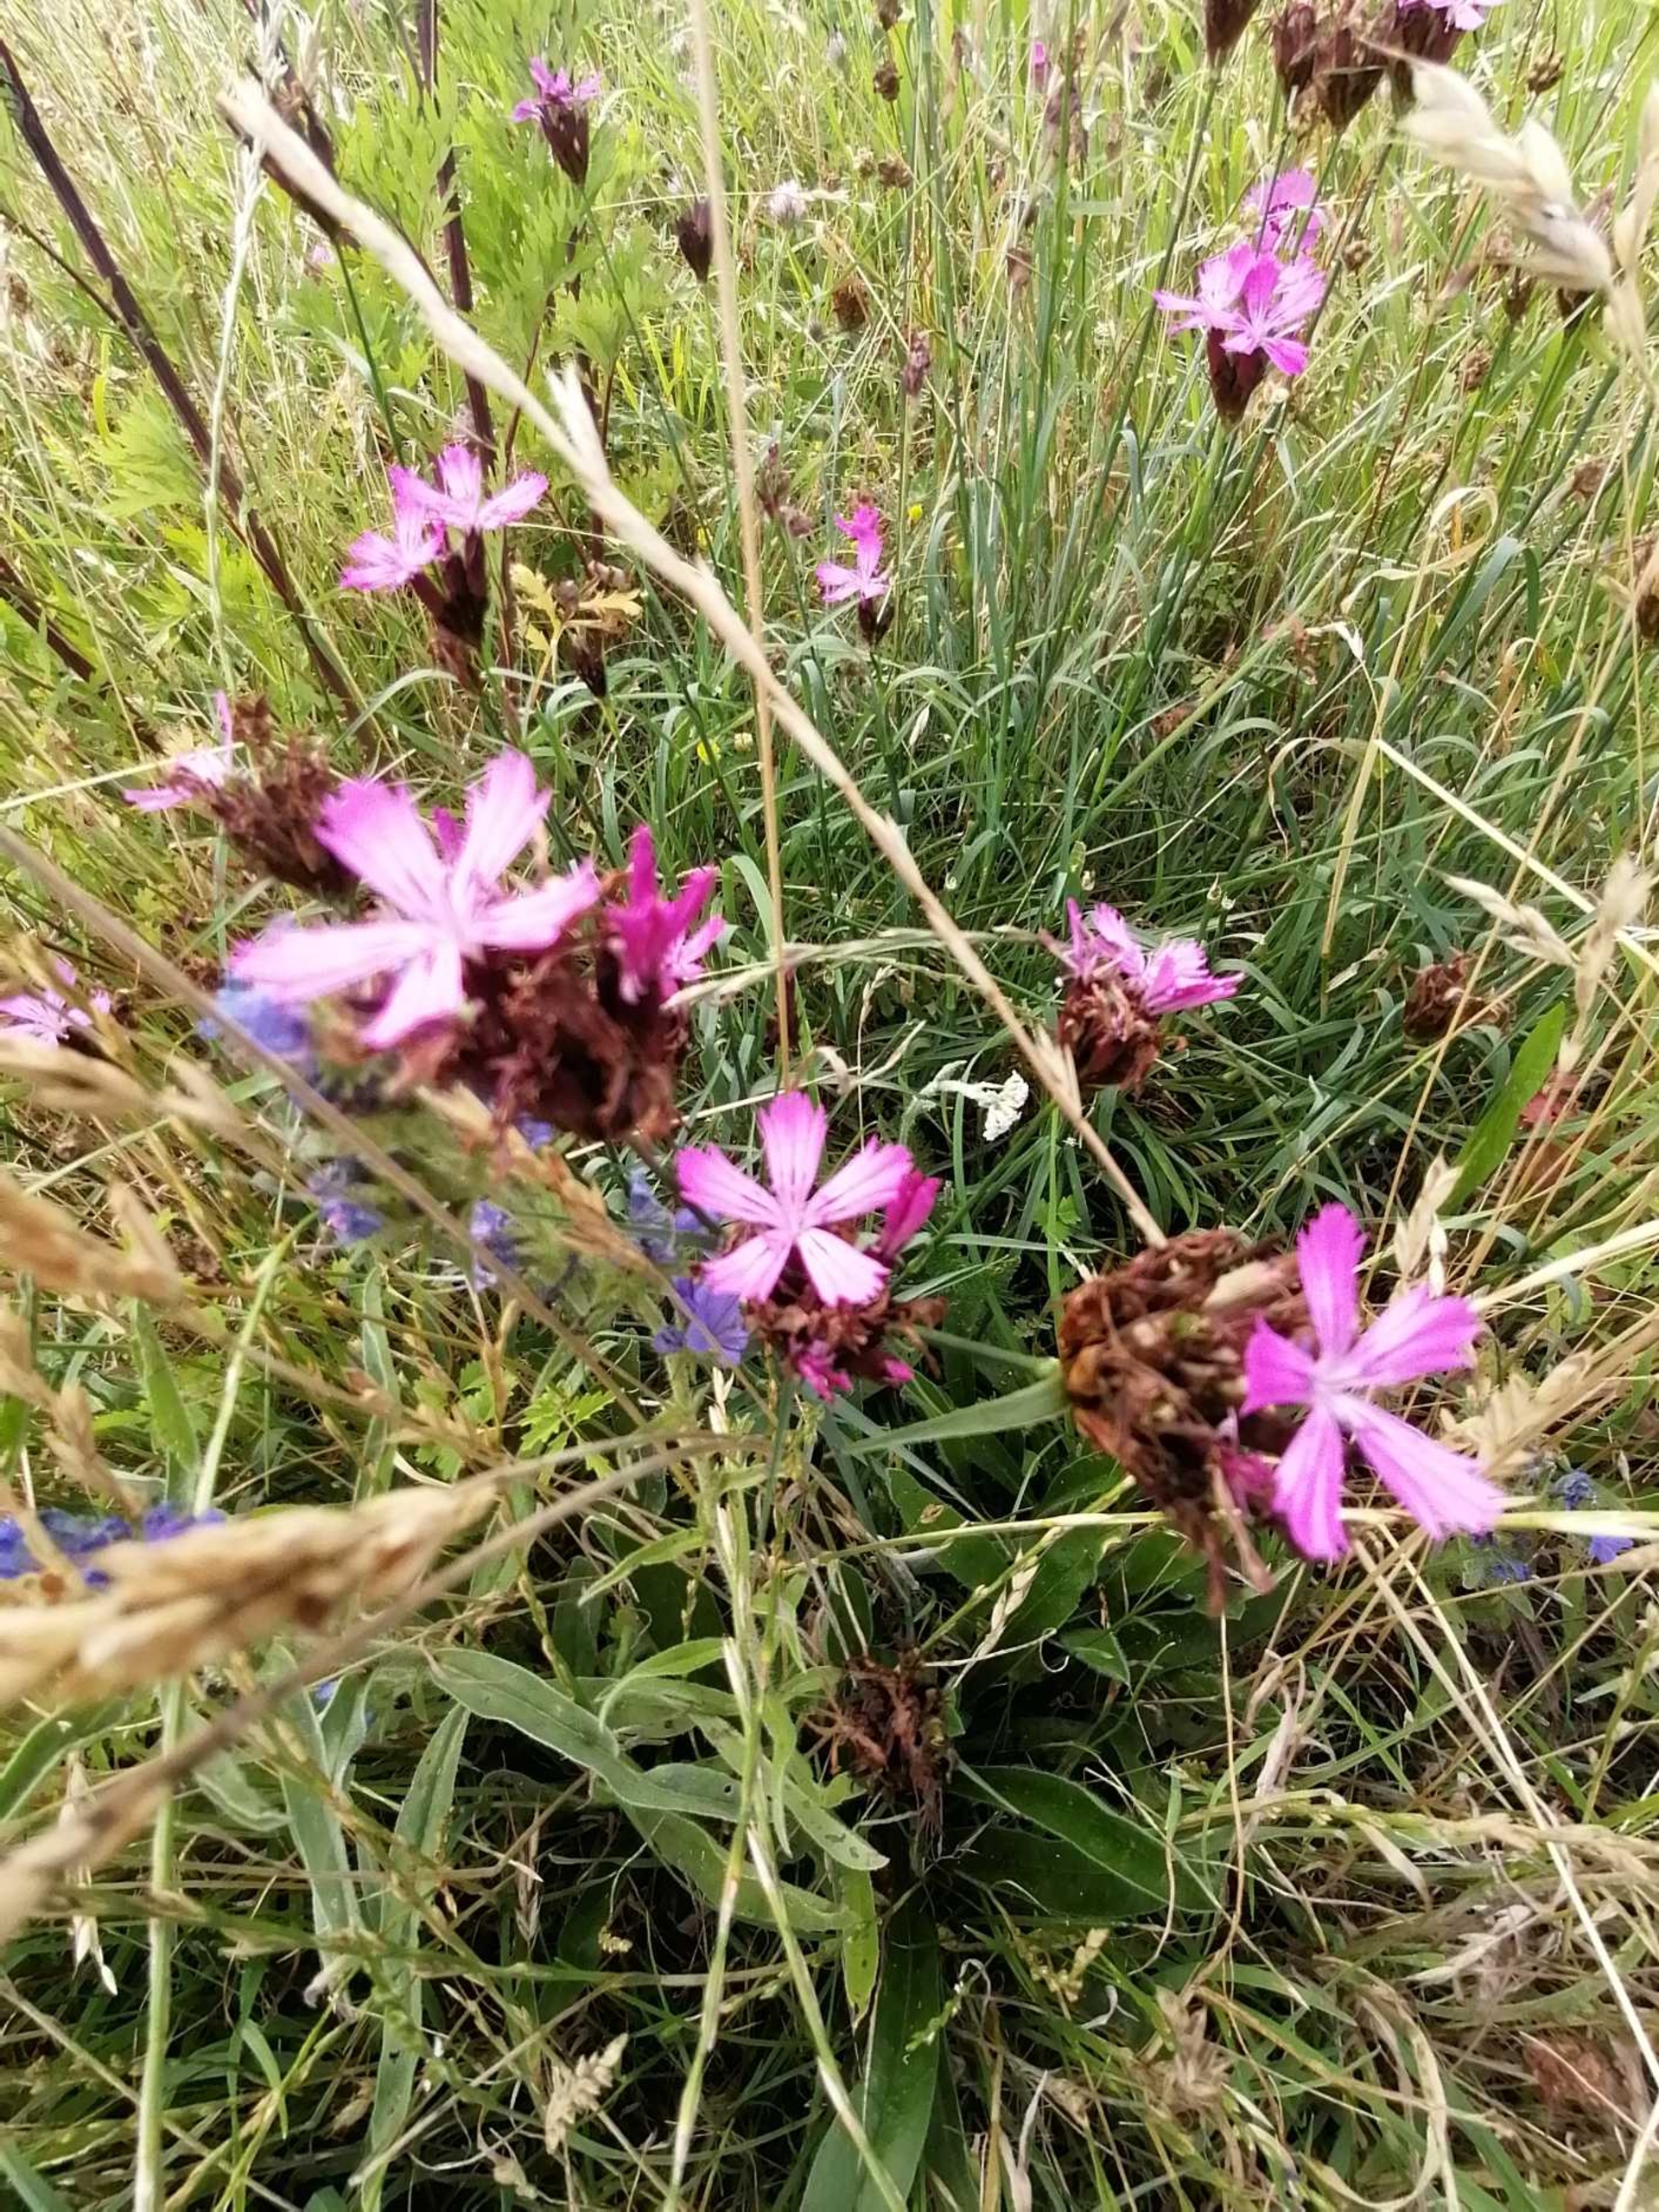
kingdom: Plantae
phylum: Tracheophyta
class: Magnoliopsida
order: Caryophyllales
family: Caryophyllaceae
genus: Dianthus
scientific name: Dianthus carthusianorum
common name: Karteuser-nellike
